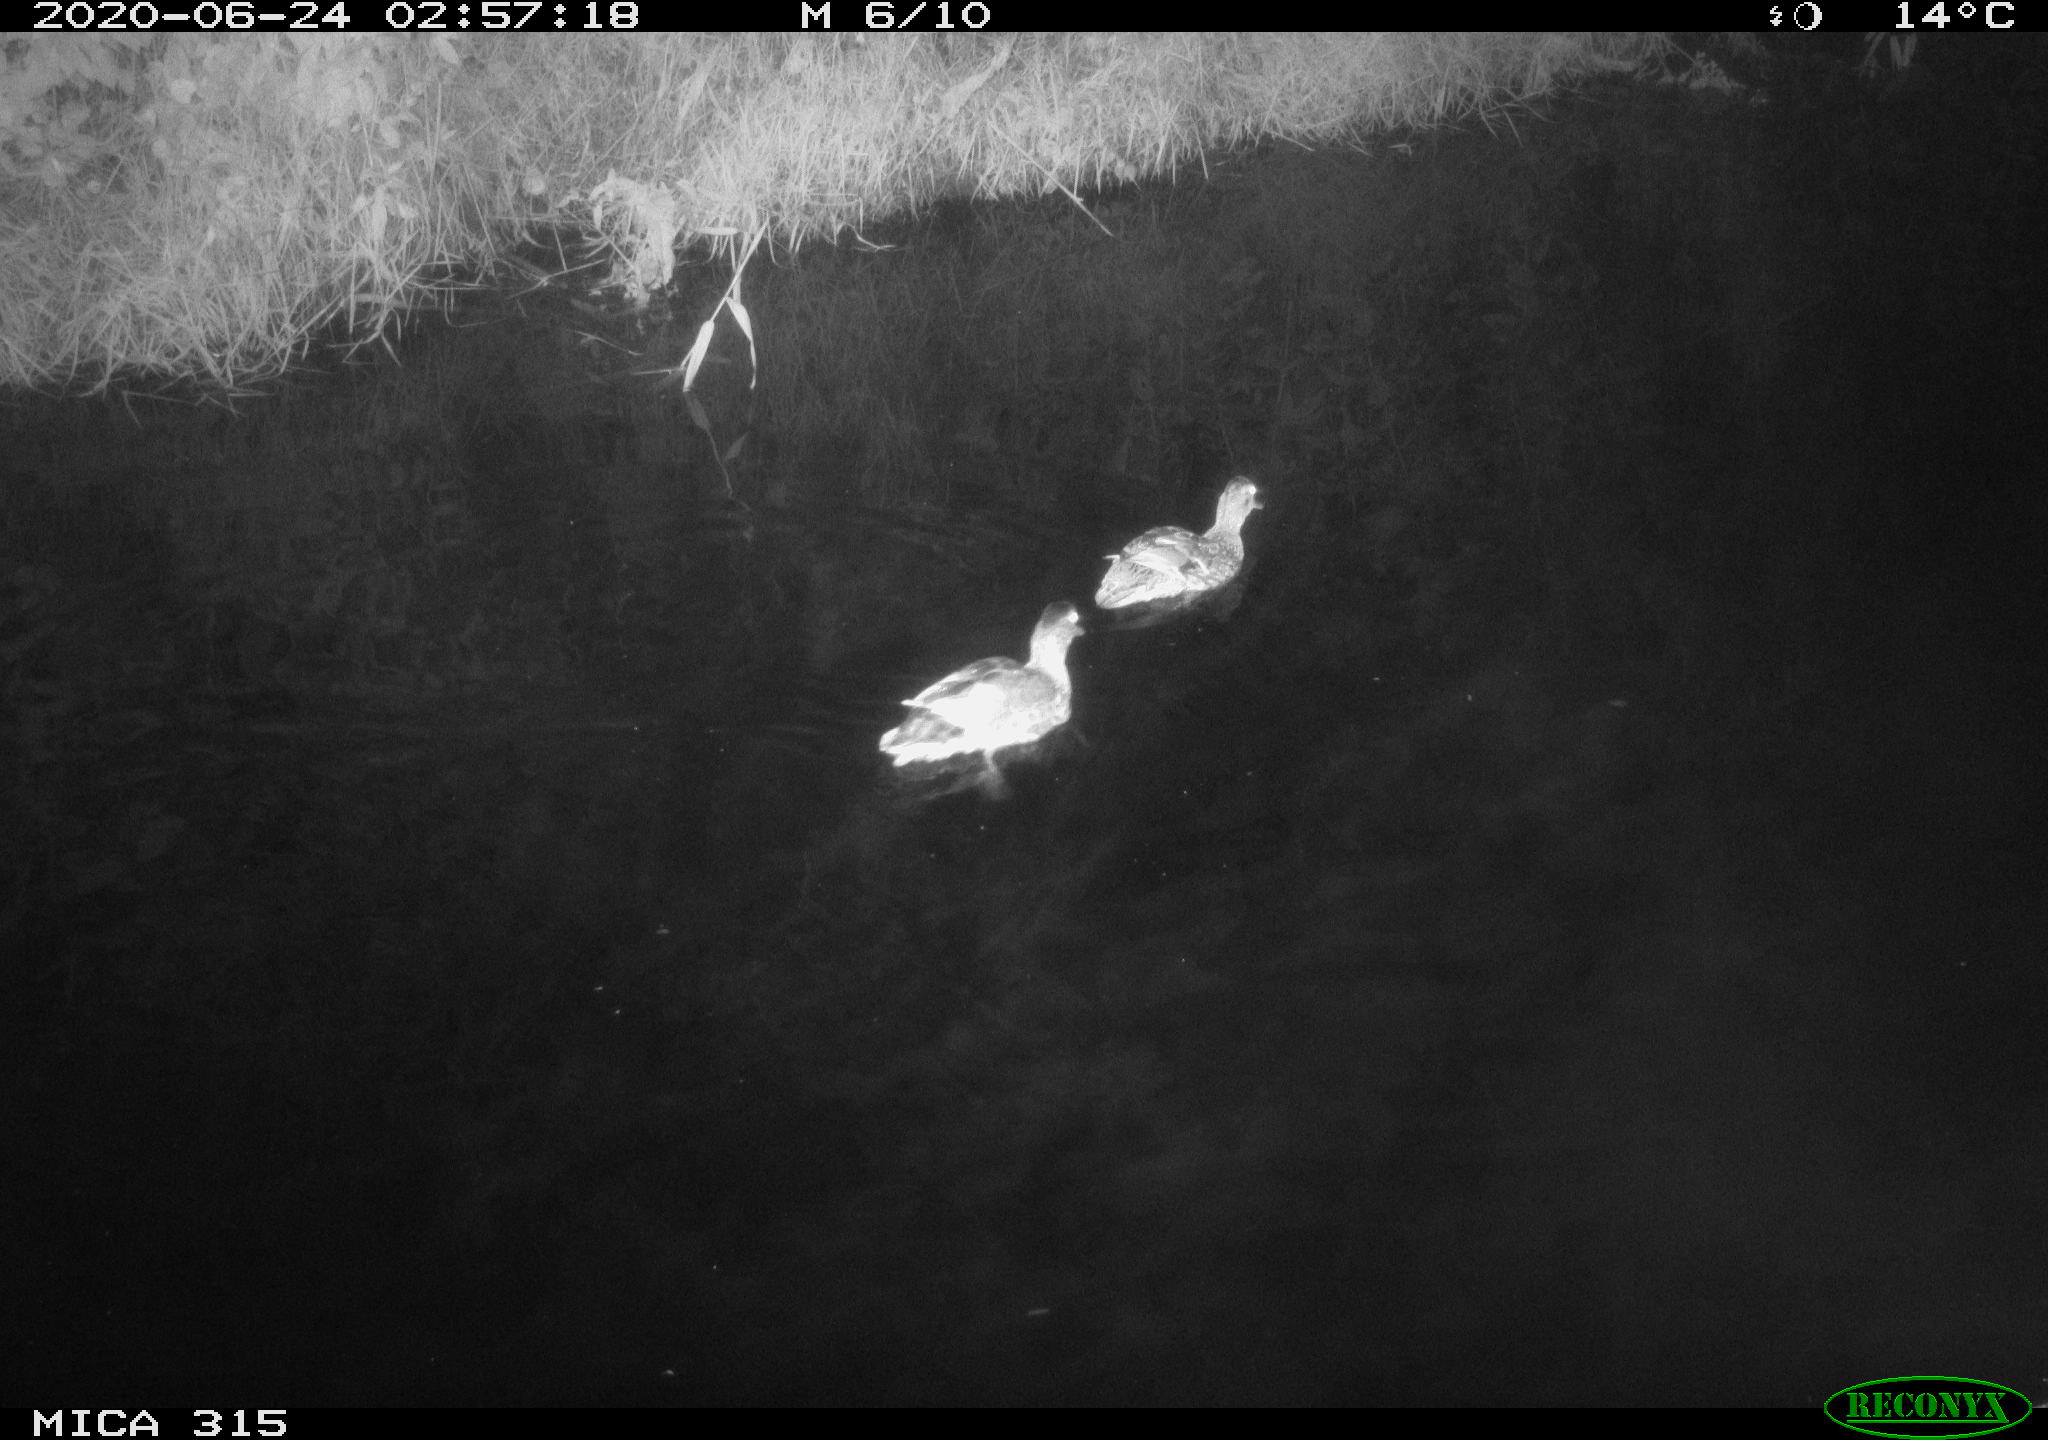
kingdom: Animalia
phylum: Chordata
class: Aves
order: Anseriformes
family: Anatidae
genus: Anas
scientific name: Anas platyrhynchos
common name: Mallard
